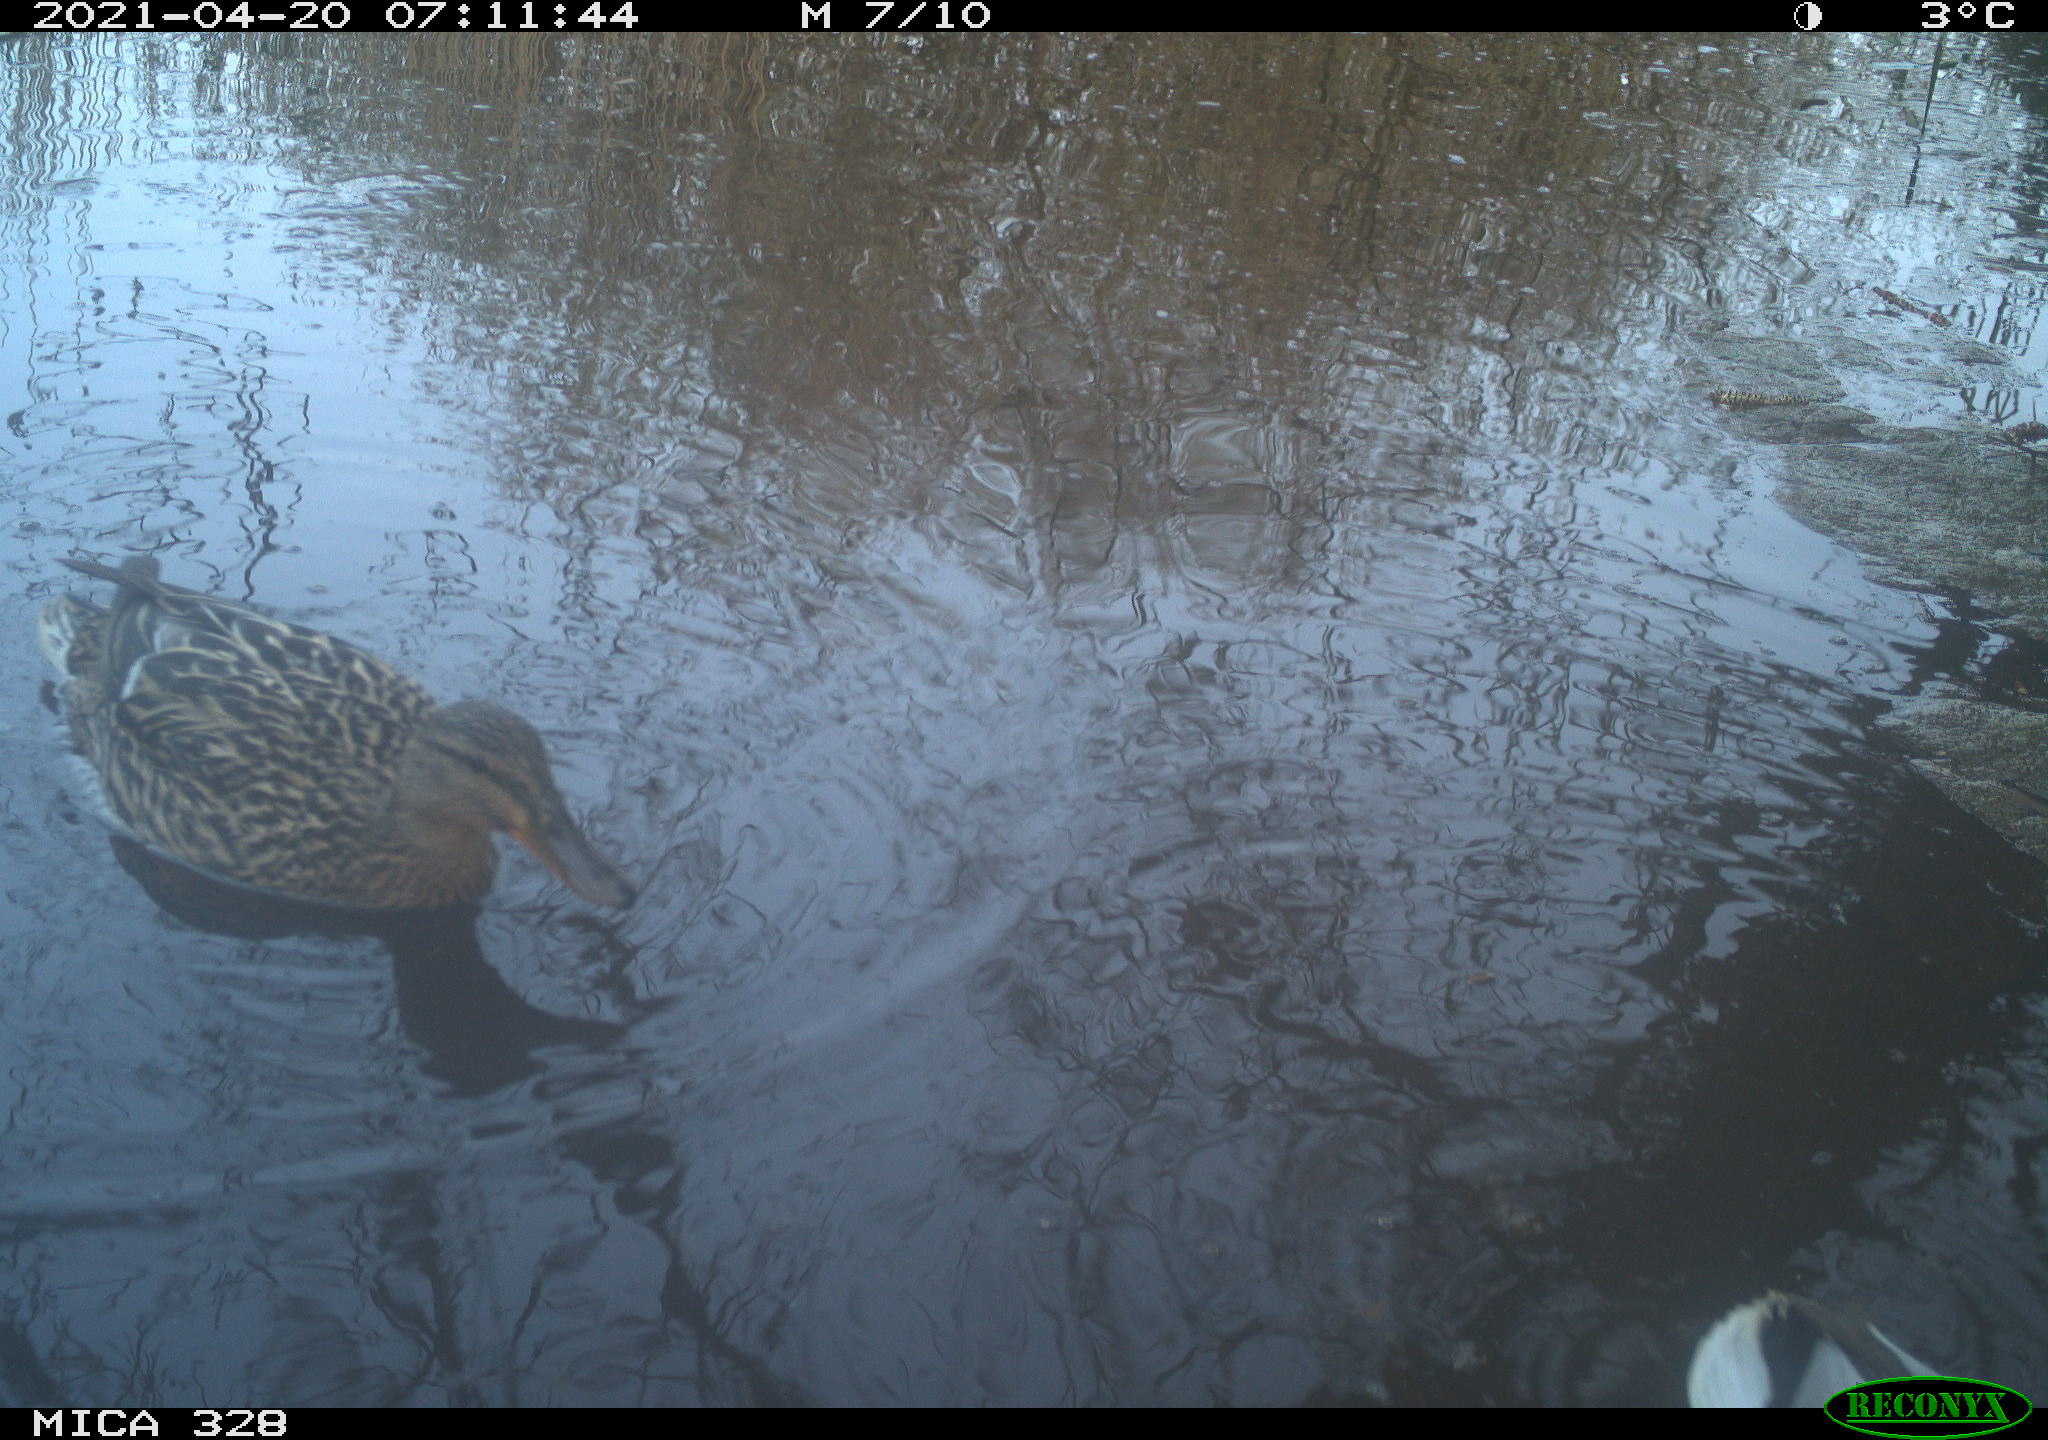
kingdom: Animalia
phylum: Chordata
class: Aves
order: Anseriformes
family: Anatidae
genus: Anas
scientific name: Anas platyrhynchos
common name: Mallard
